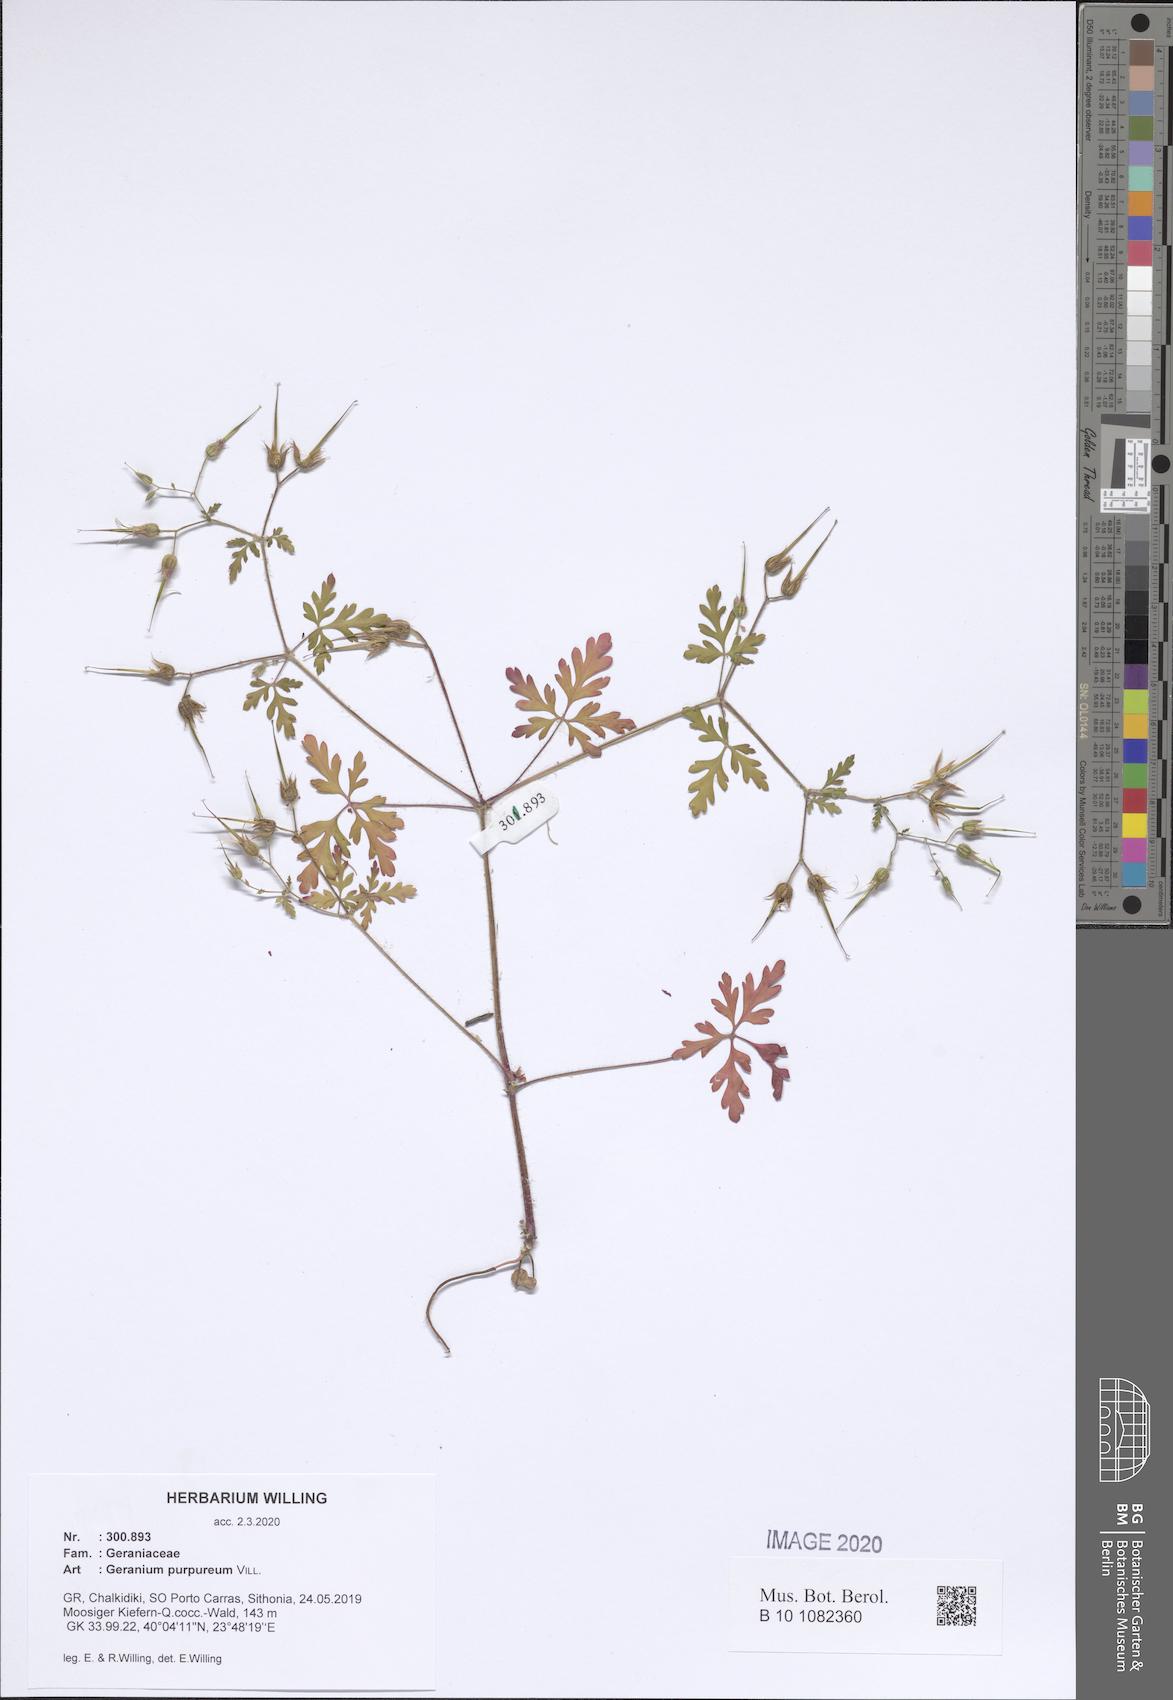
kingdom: Plantae
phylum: Tracheophyta
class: Magnoliopsida
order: Geraniales
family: Geraniaceae
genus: Geranium
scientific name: Geranium purpureum
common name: Little-robin
